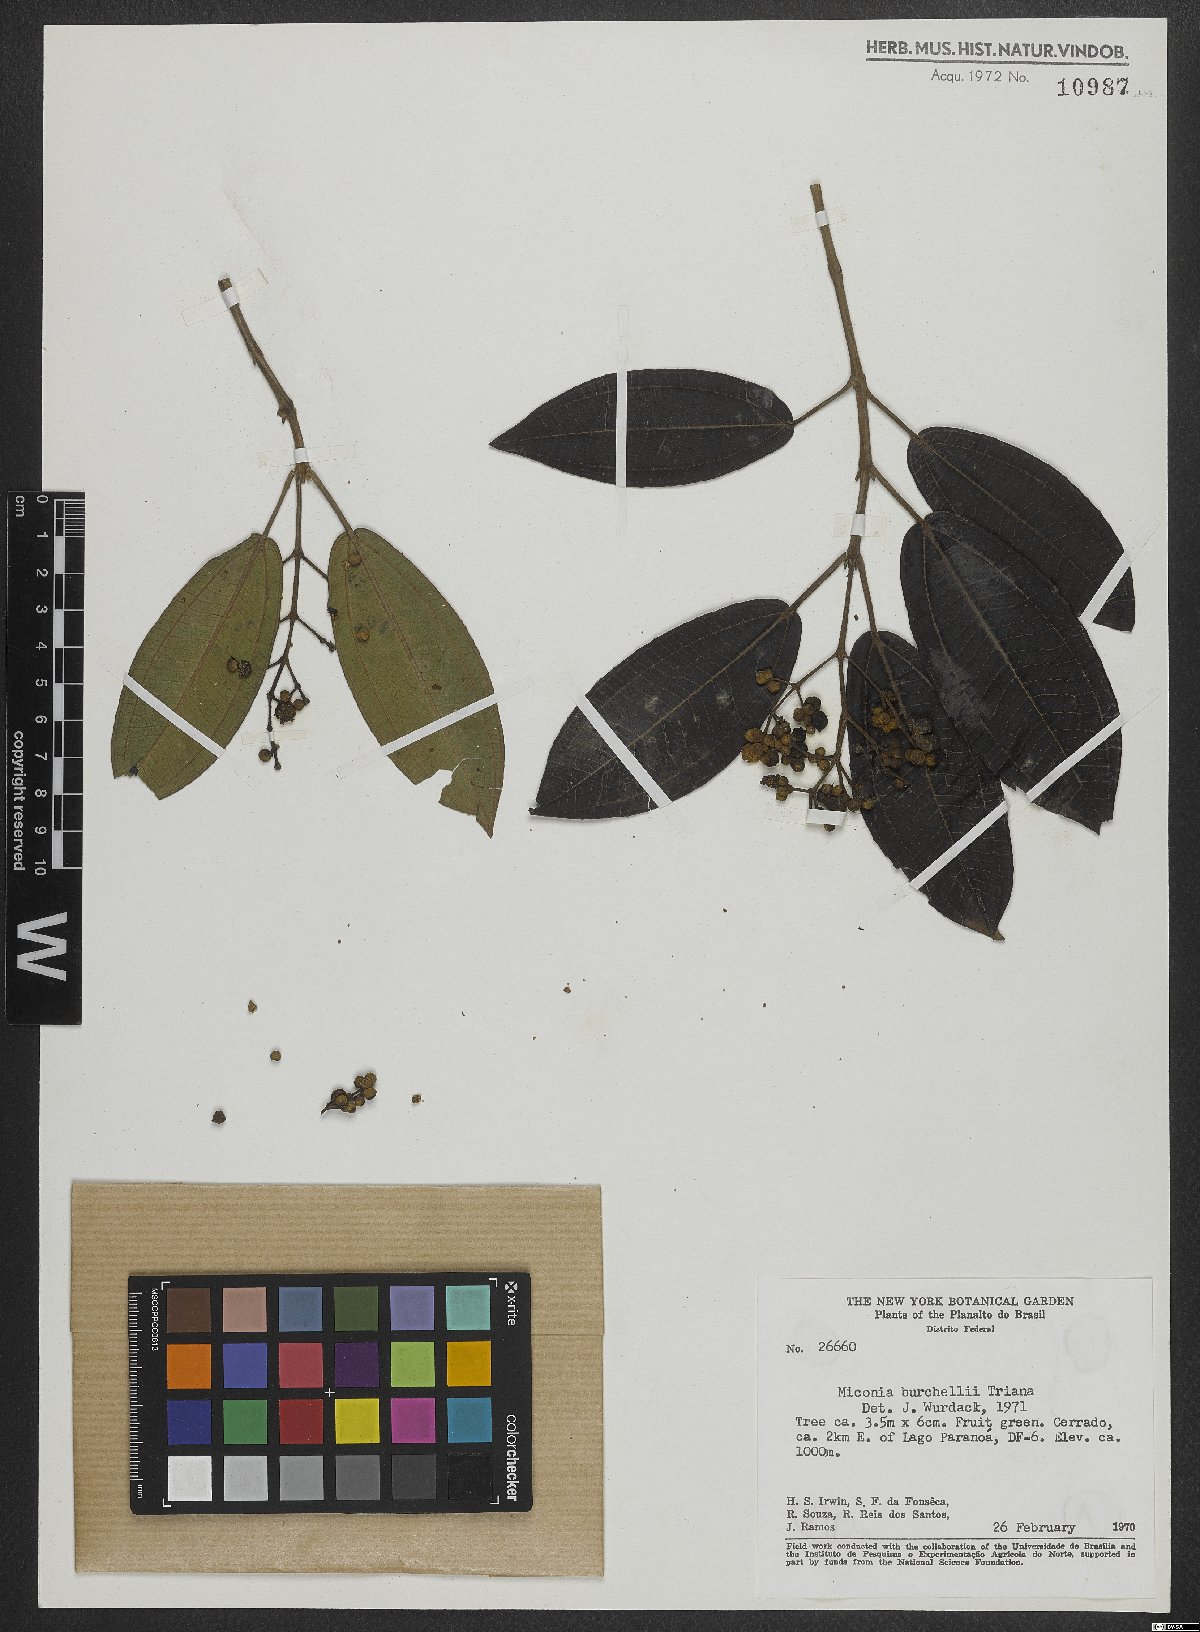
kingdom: Plantae
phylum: Tracheophyta
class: Magnoliopsida
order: Myrtales
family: Melastomataceae
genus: Miconia
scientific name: Miconia burchellii
